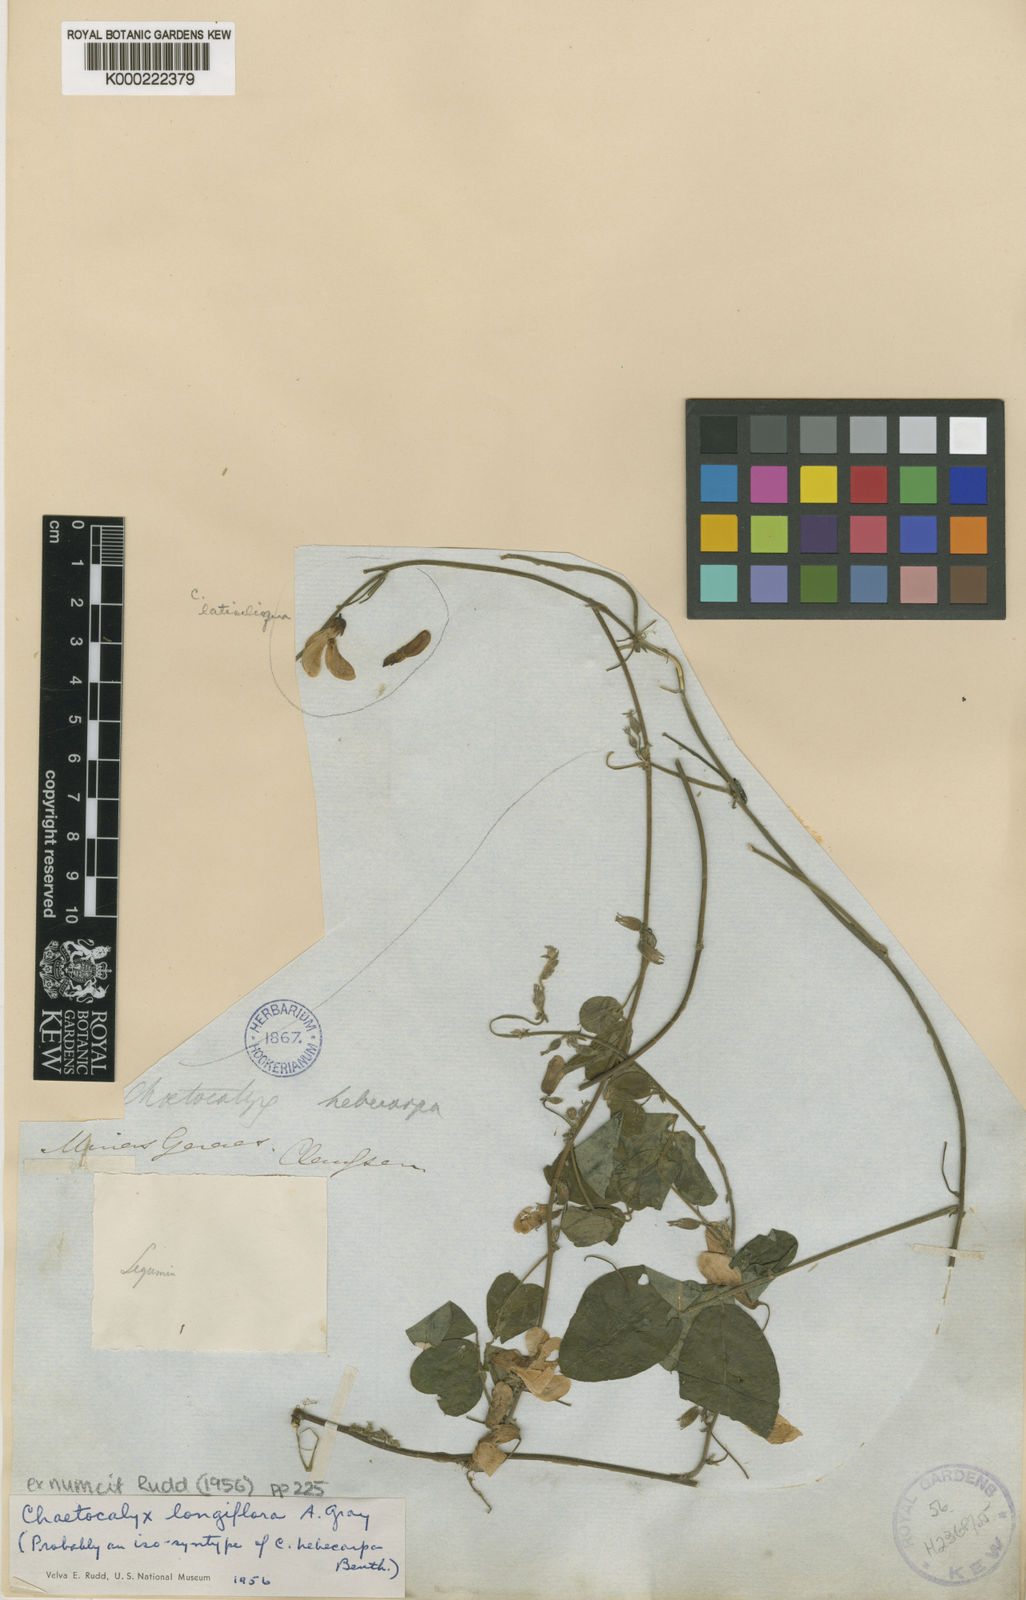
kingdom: Plantae
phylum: Tracheophyta
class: Magnoliopsida
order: Fabales
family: Fabaceae
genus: Nissolia
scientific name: Nissolia longiflora
